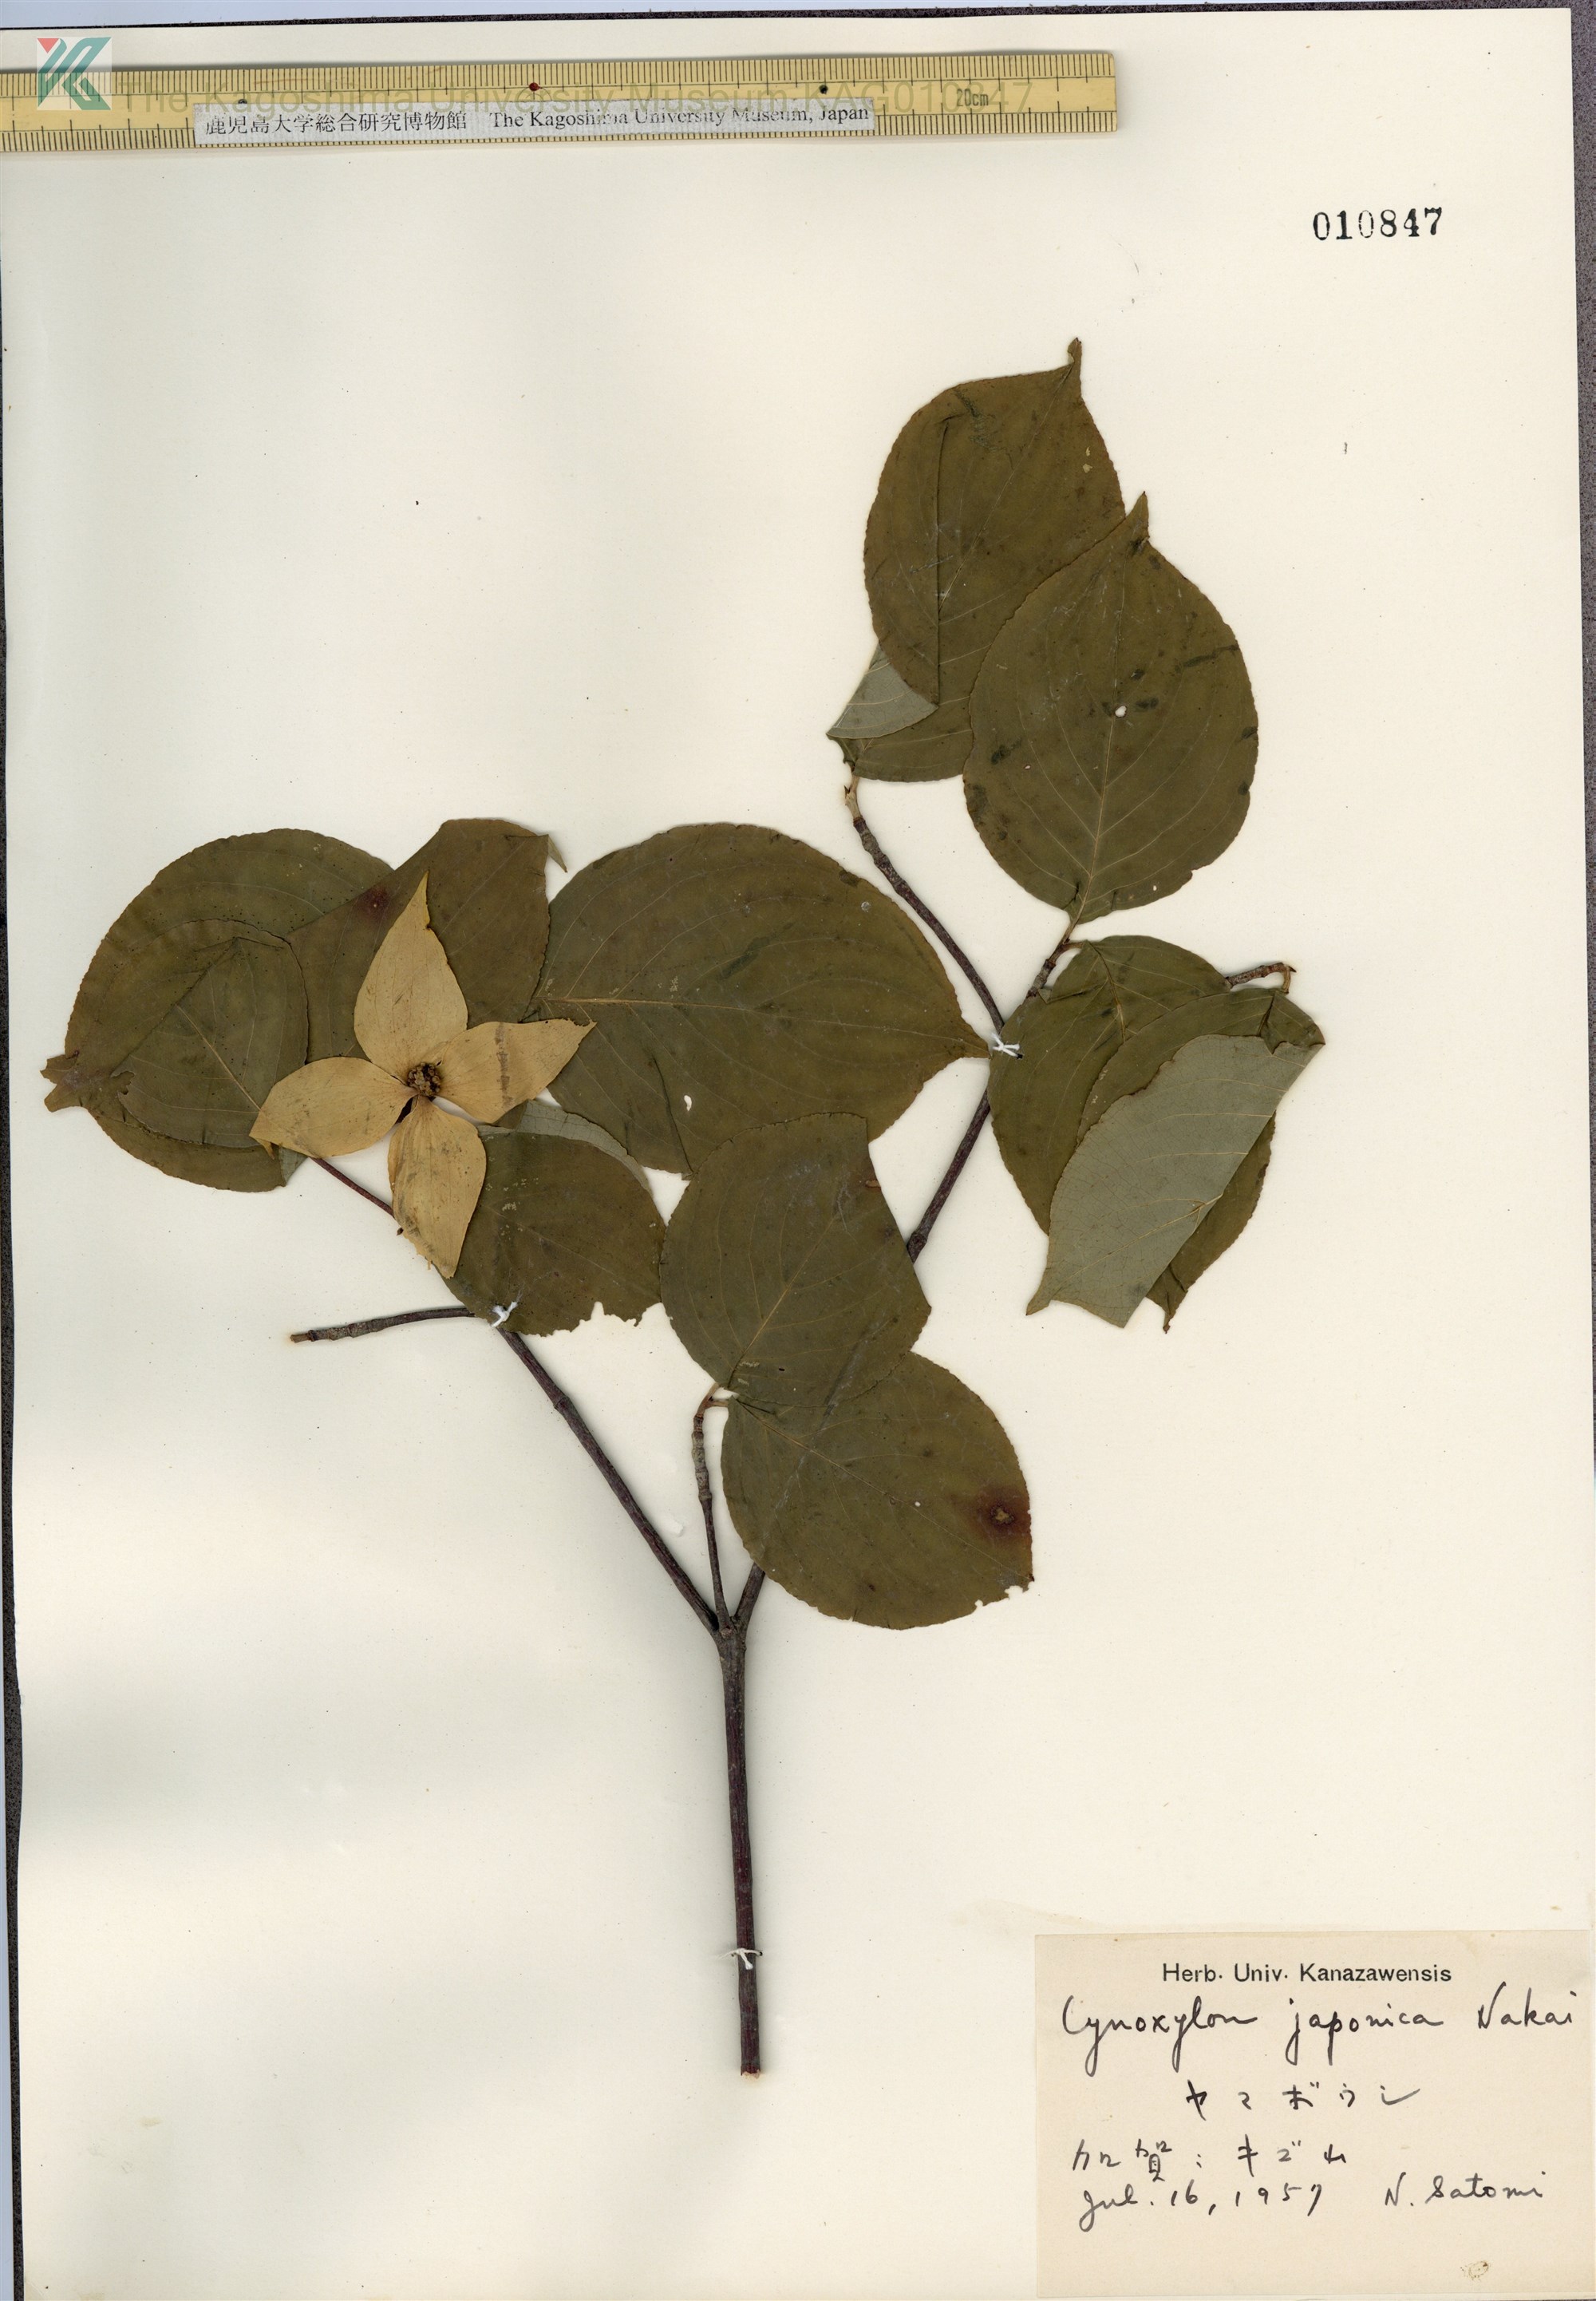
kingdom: Plantae
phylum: Tracheophyta
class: Magnoliopsida
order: Cornales
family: Cornaceae
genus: Cornus
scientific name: Cornus kousa
